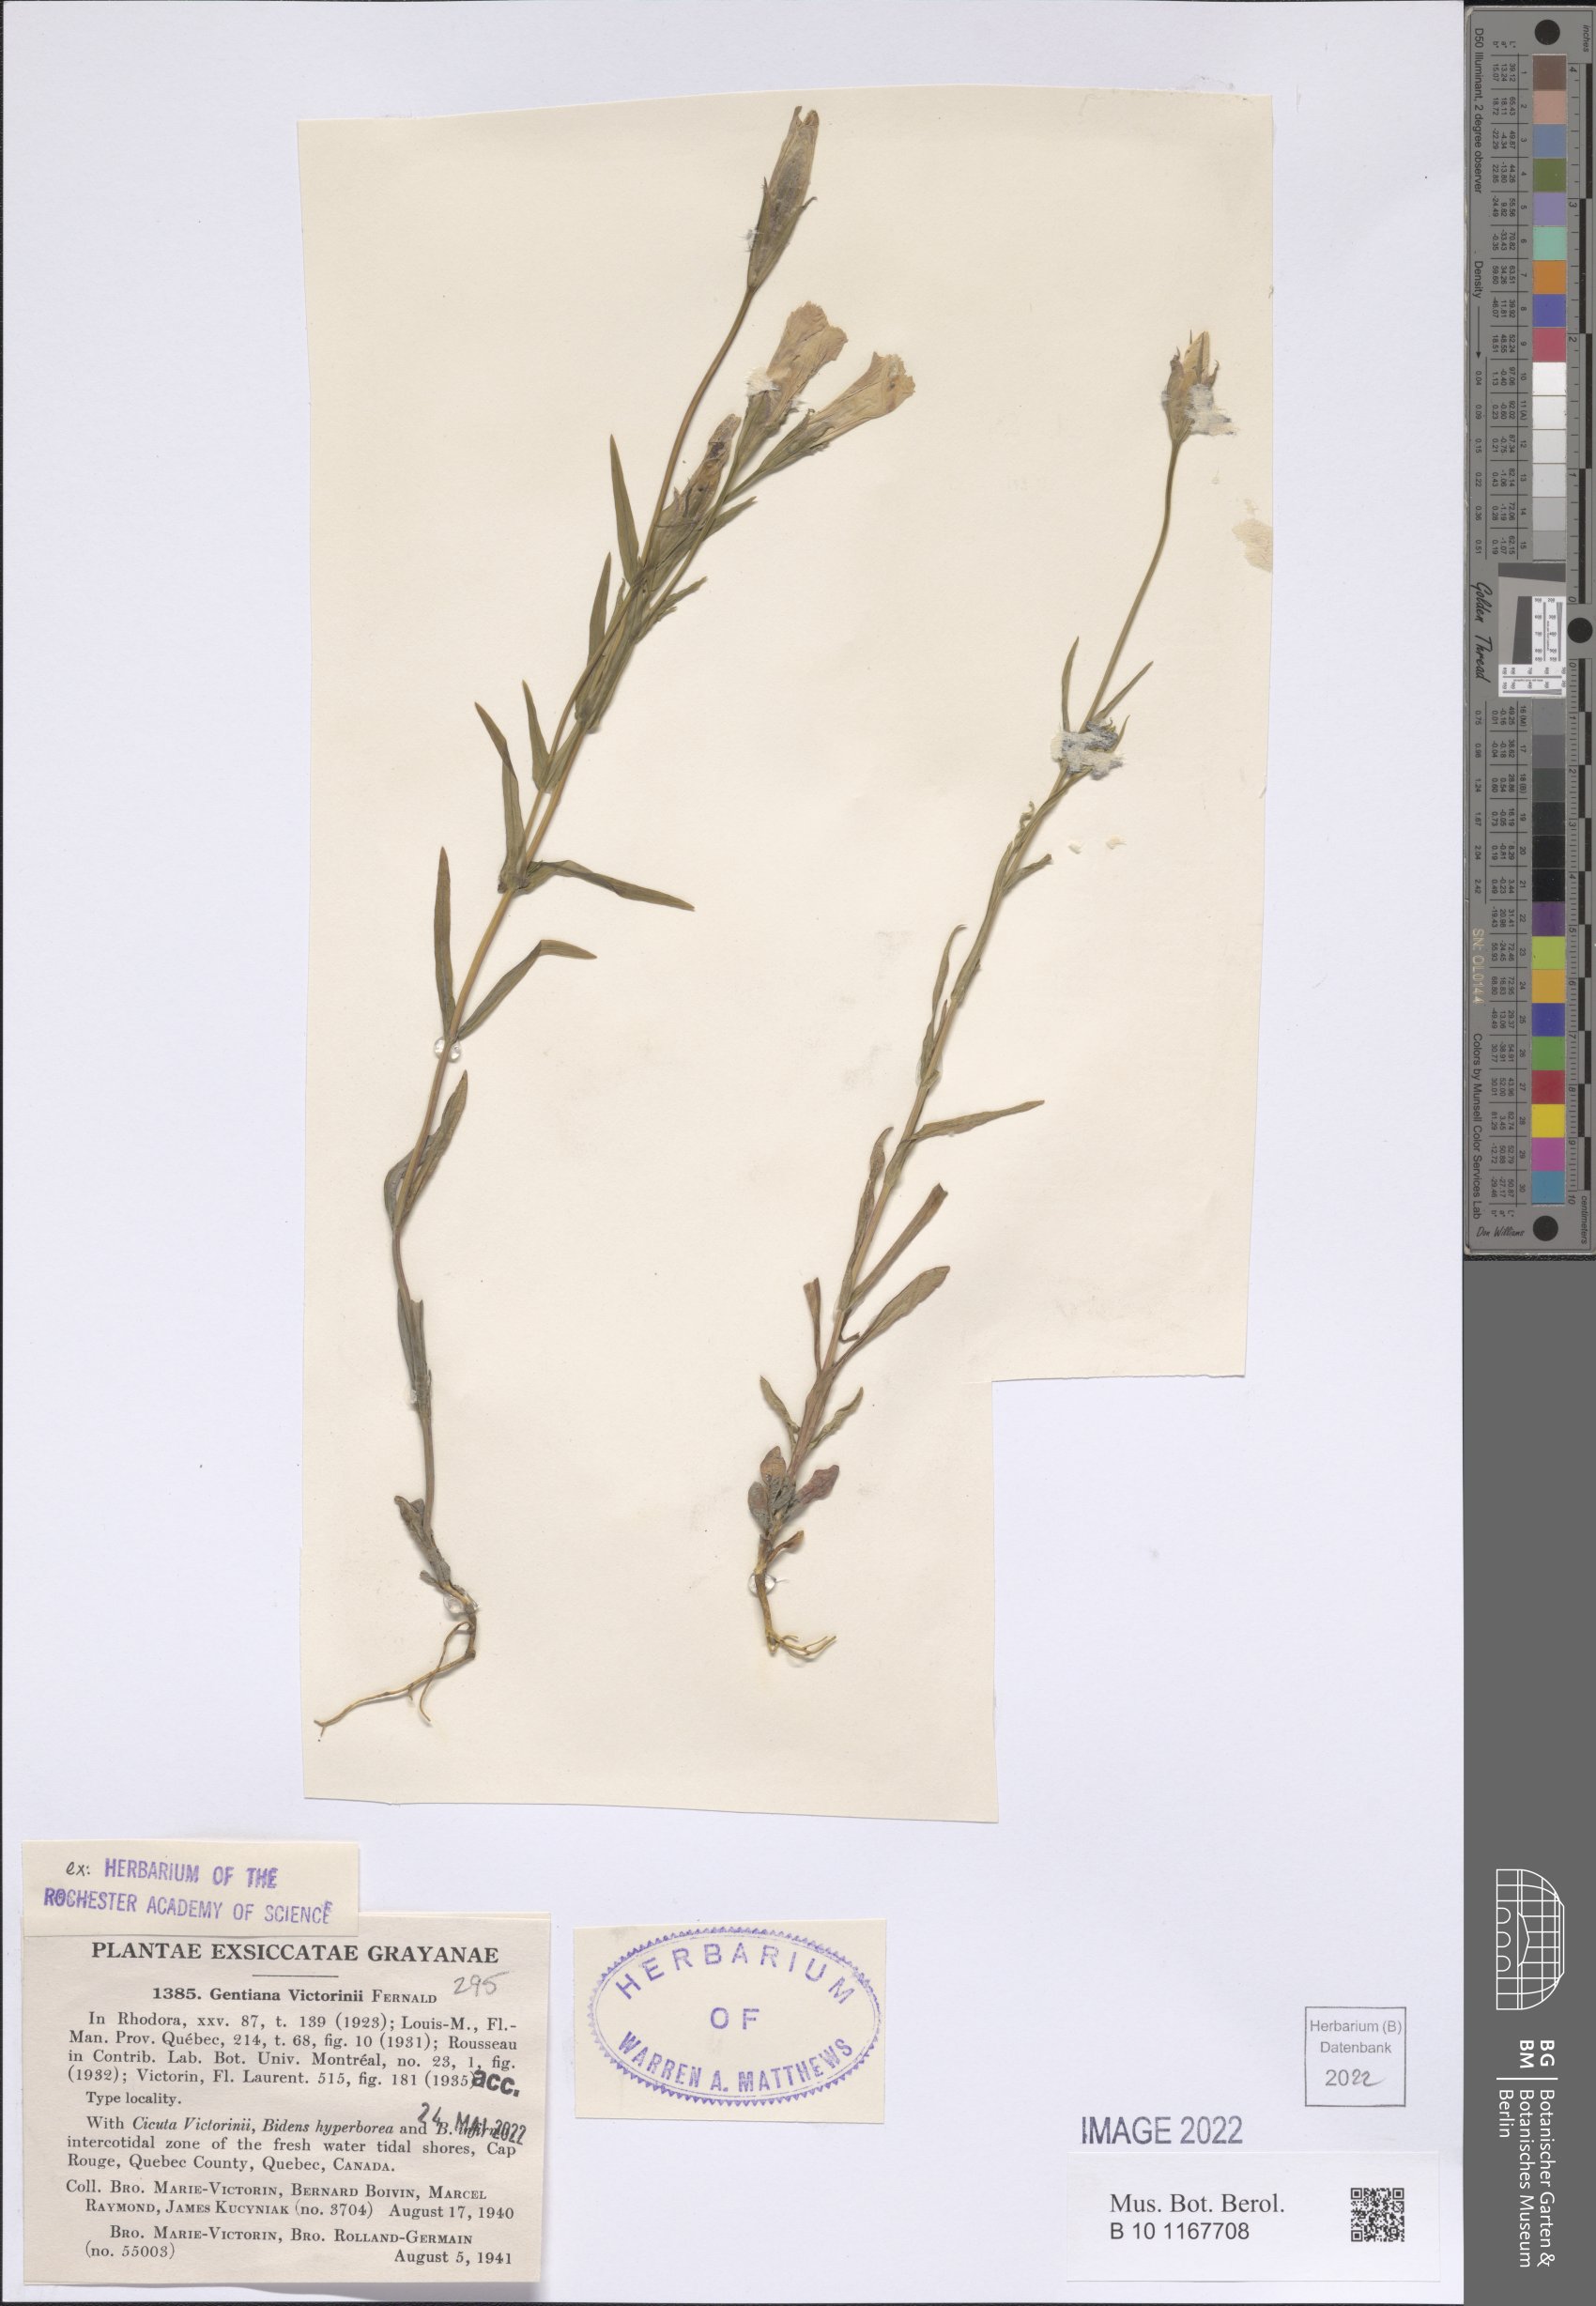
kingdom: Plantae
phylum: Tracheophyta
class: Magnoliopsida
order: Gentianales
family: Gentianaceae
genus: Gentianopsis
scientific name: Gentianopsis victorinii
